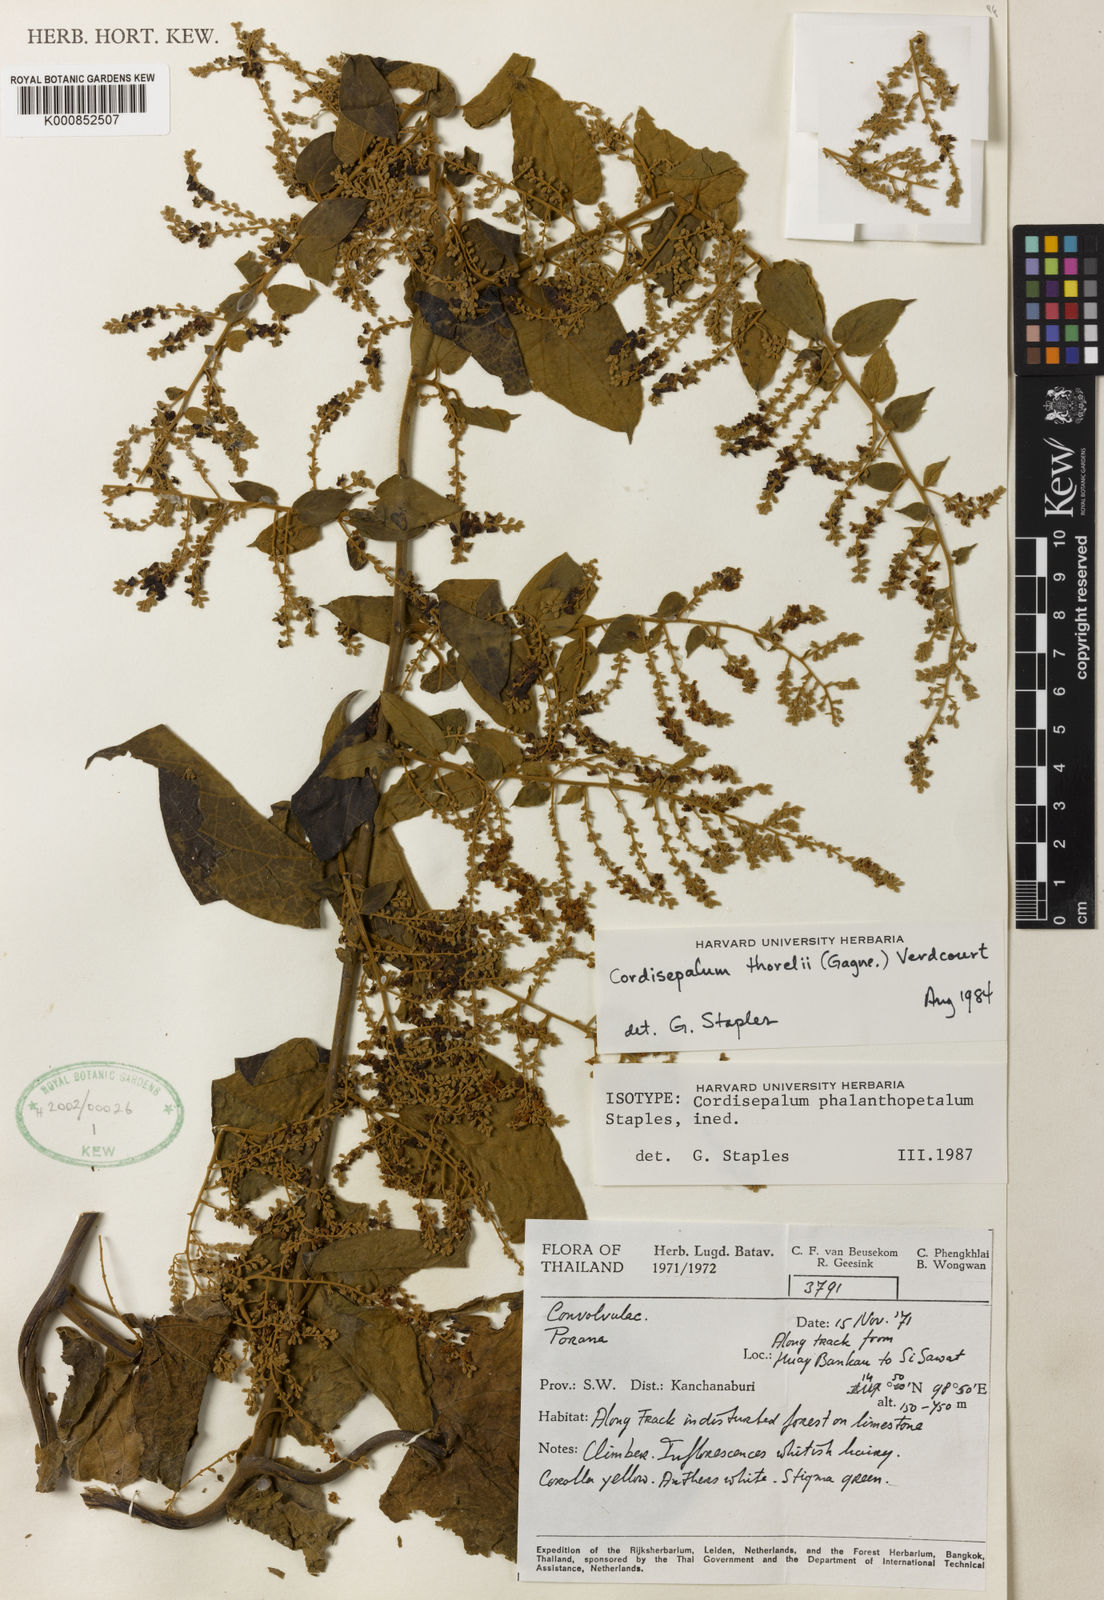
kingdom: Plantae
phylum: Tracheophyta
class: Magnoliopsida
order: Solanales
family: Convolvulaceae
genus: Cordisepalum
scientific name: Cordisepalum phalanthopetalum
